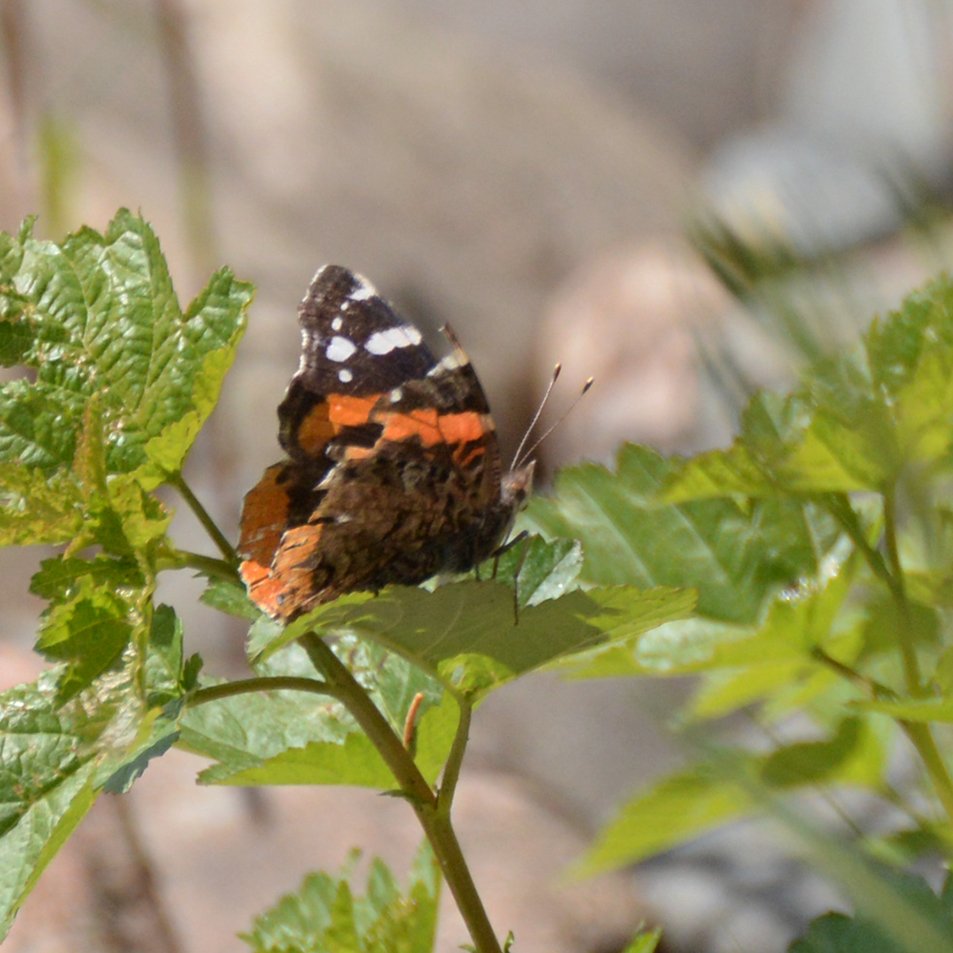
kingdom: Animalia
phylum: Arthropoda
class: Insecta
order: Lepidoptera
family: Nymphalidae
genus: Vanessa
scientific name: Vanessa atalanta
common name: Red Admiral
